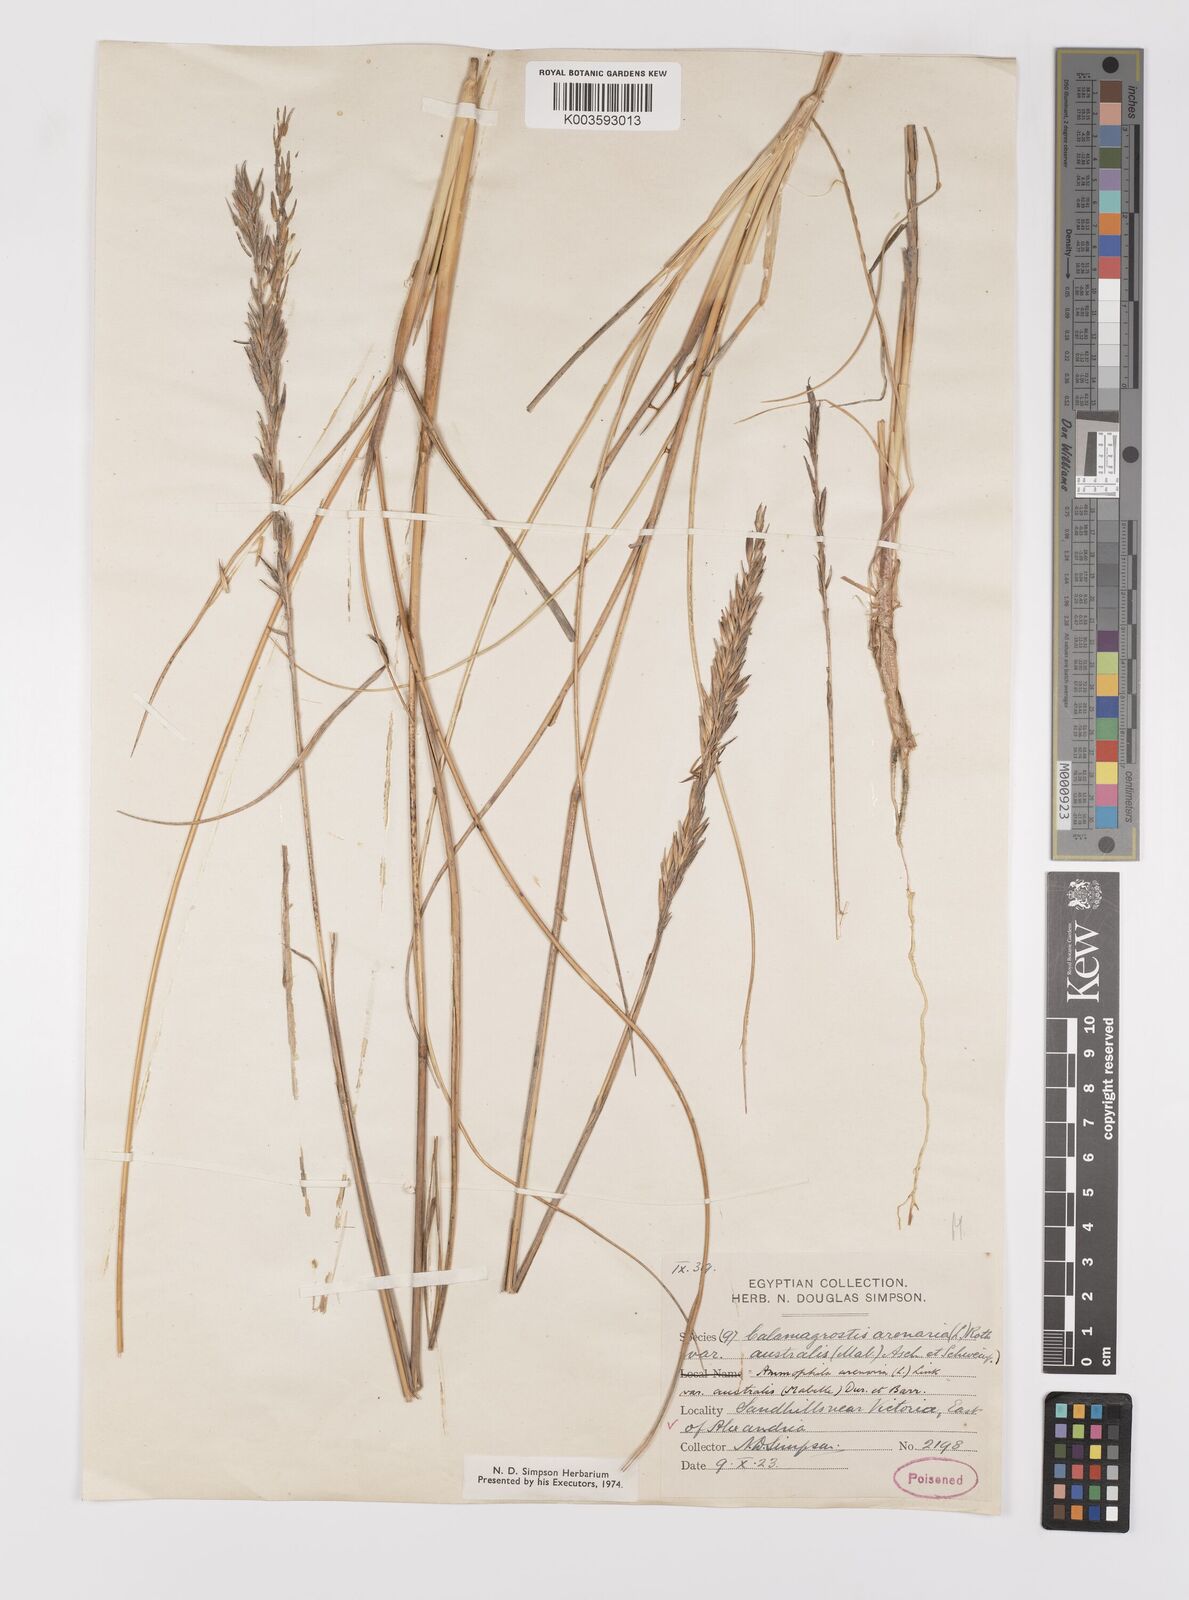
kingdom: Plantae
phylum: Tracheophyta
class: Liliopsida
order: Poales
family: Poaceae
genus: Calamagrostis
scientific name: Calamagrostis arenaria
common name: European beachgrass
